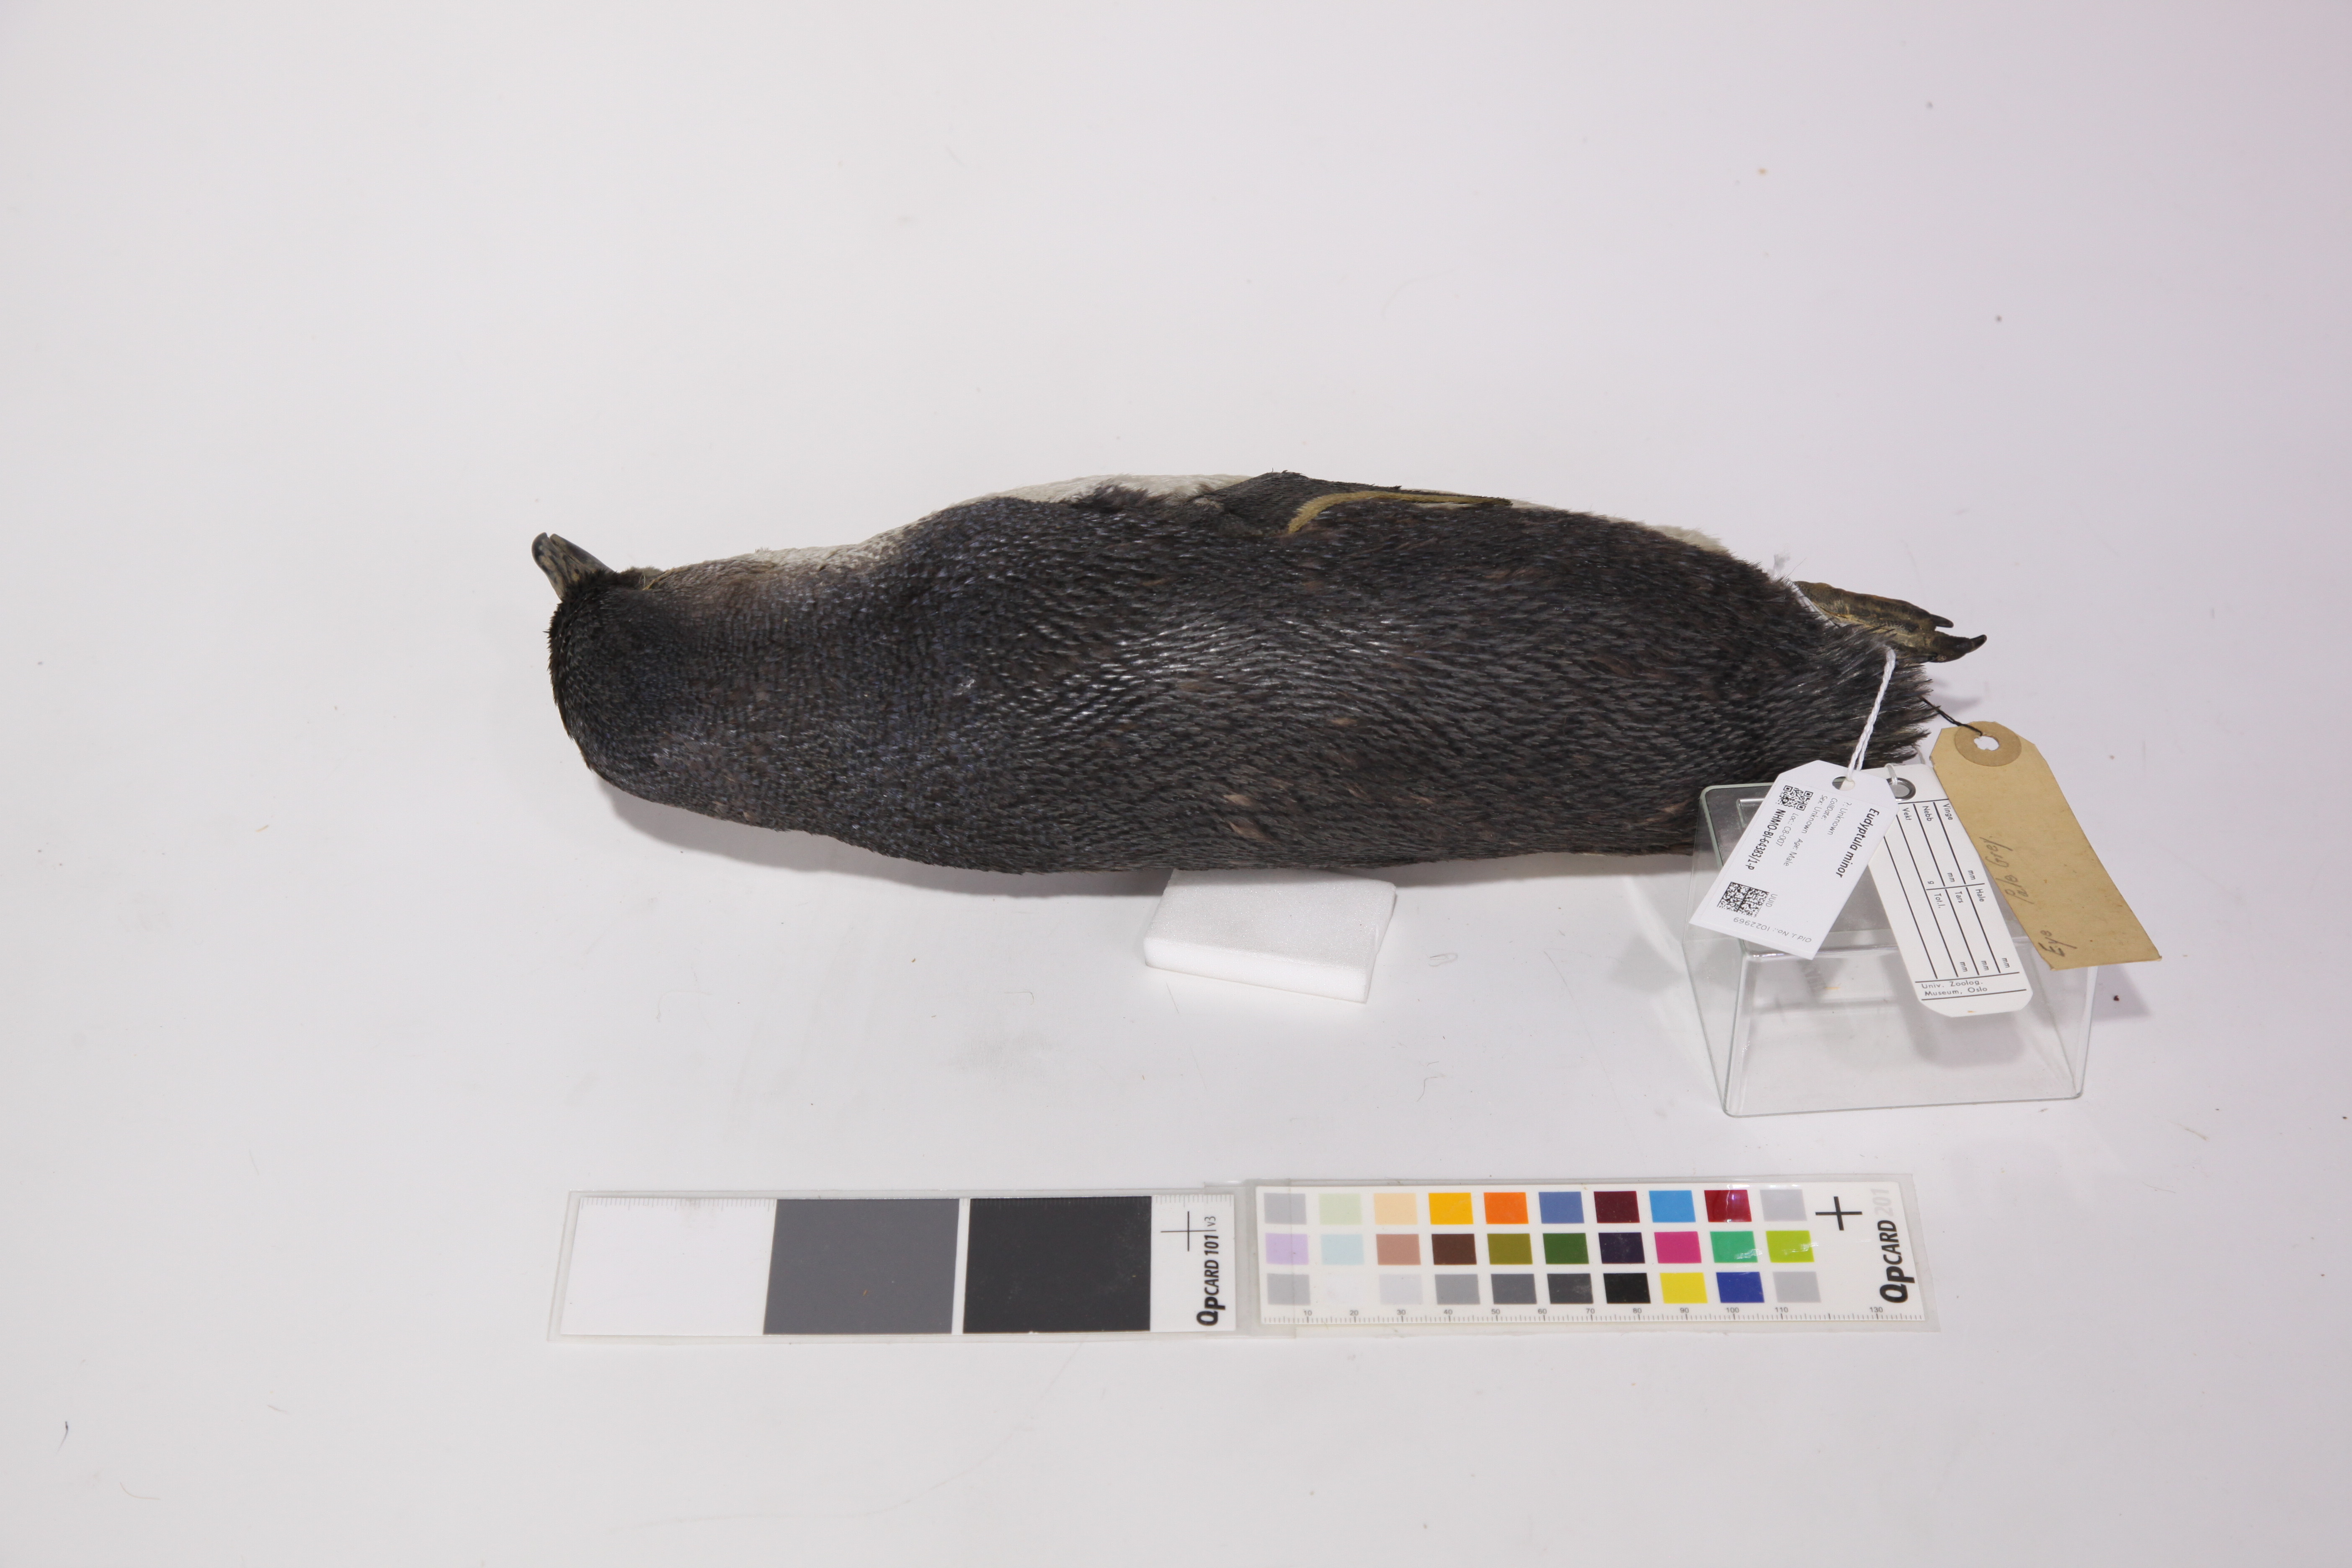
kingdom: Animalia
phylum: Chordata
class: Aves
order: Sphenisciformes
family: Spheniscidae
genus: Eudyptula
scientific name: Eudyptula minor
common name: Little penguin
